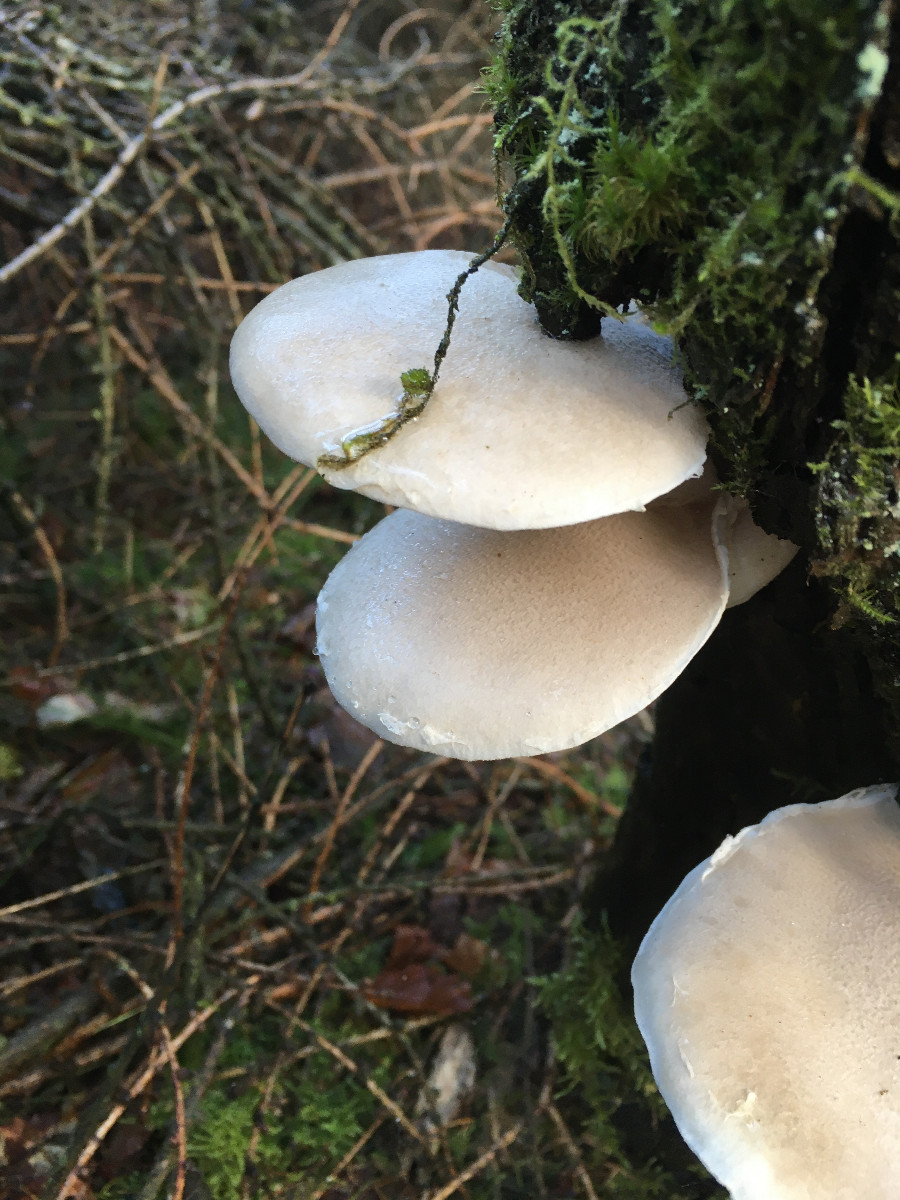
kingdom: Fungi
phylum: Basidiomycota
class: Agaricomycetes
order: Agaricales
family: Pleurotaceae
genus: Pleurotus
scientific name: Pleurotus dryinus
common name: korkagtig østershat
